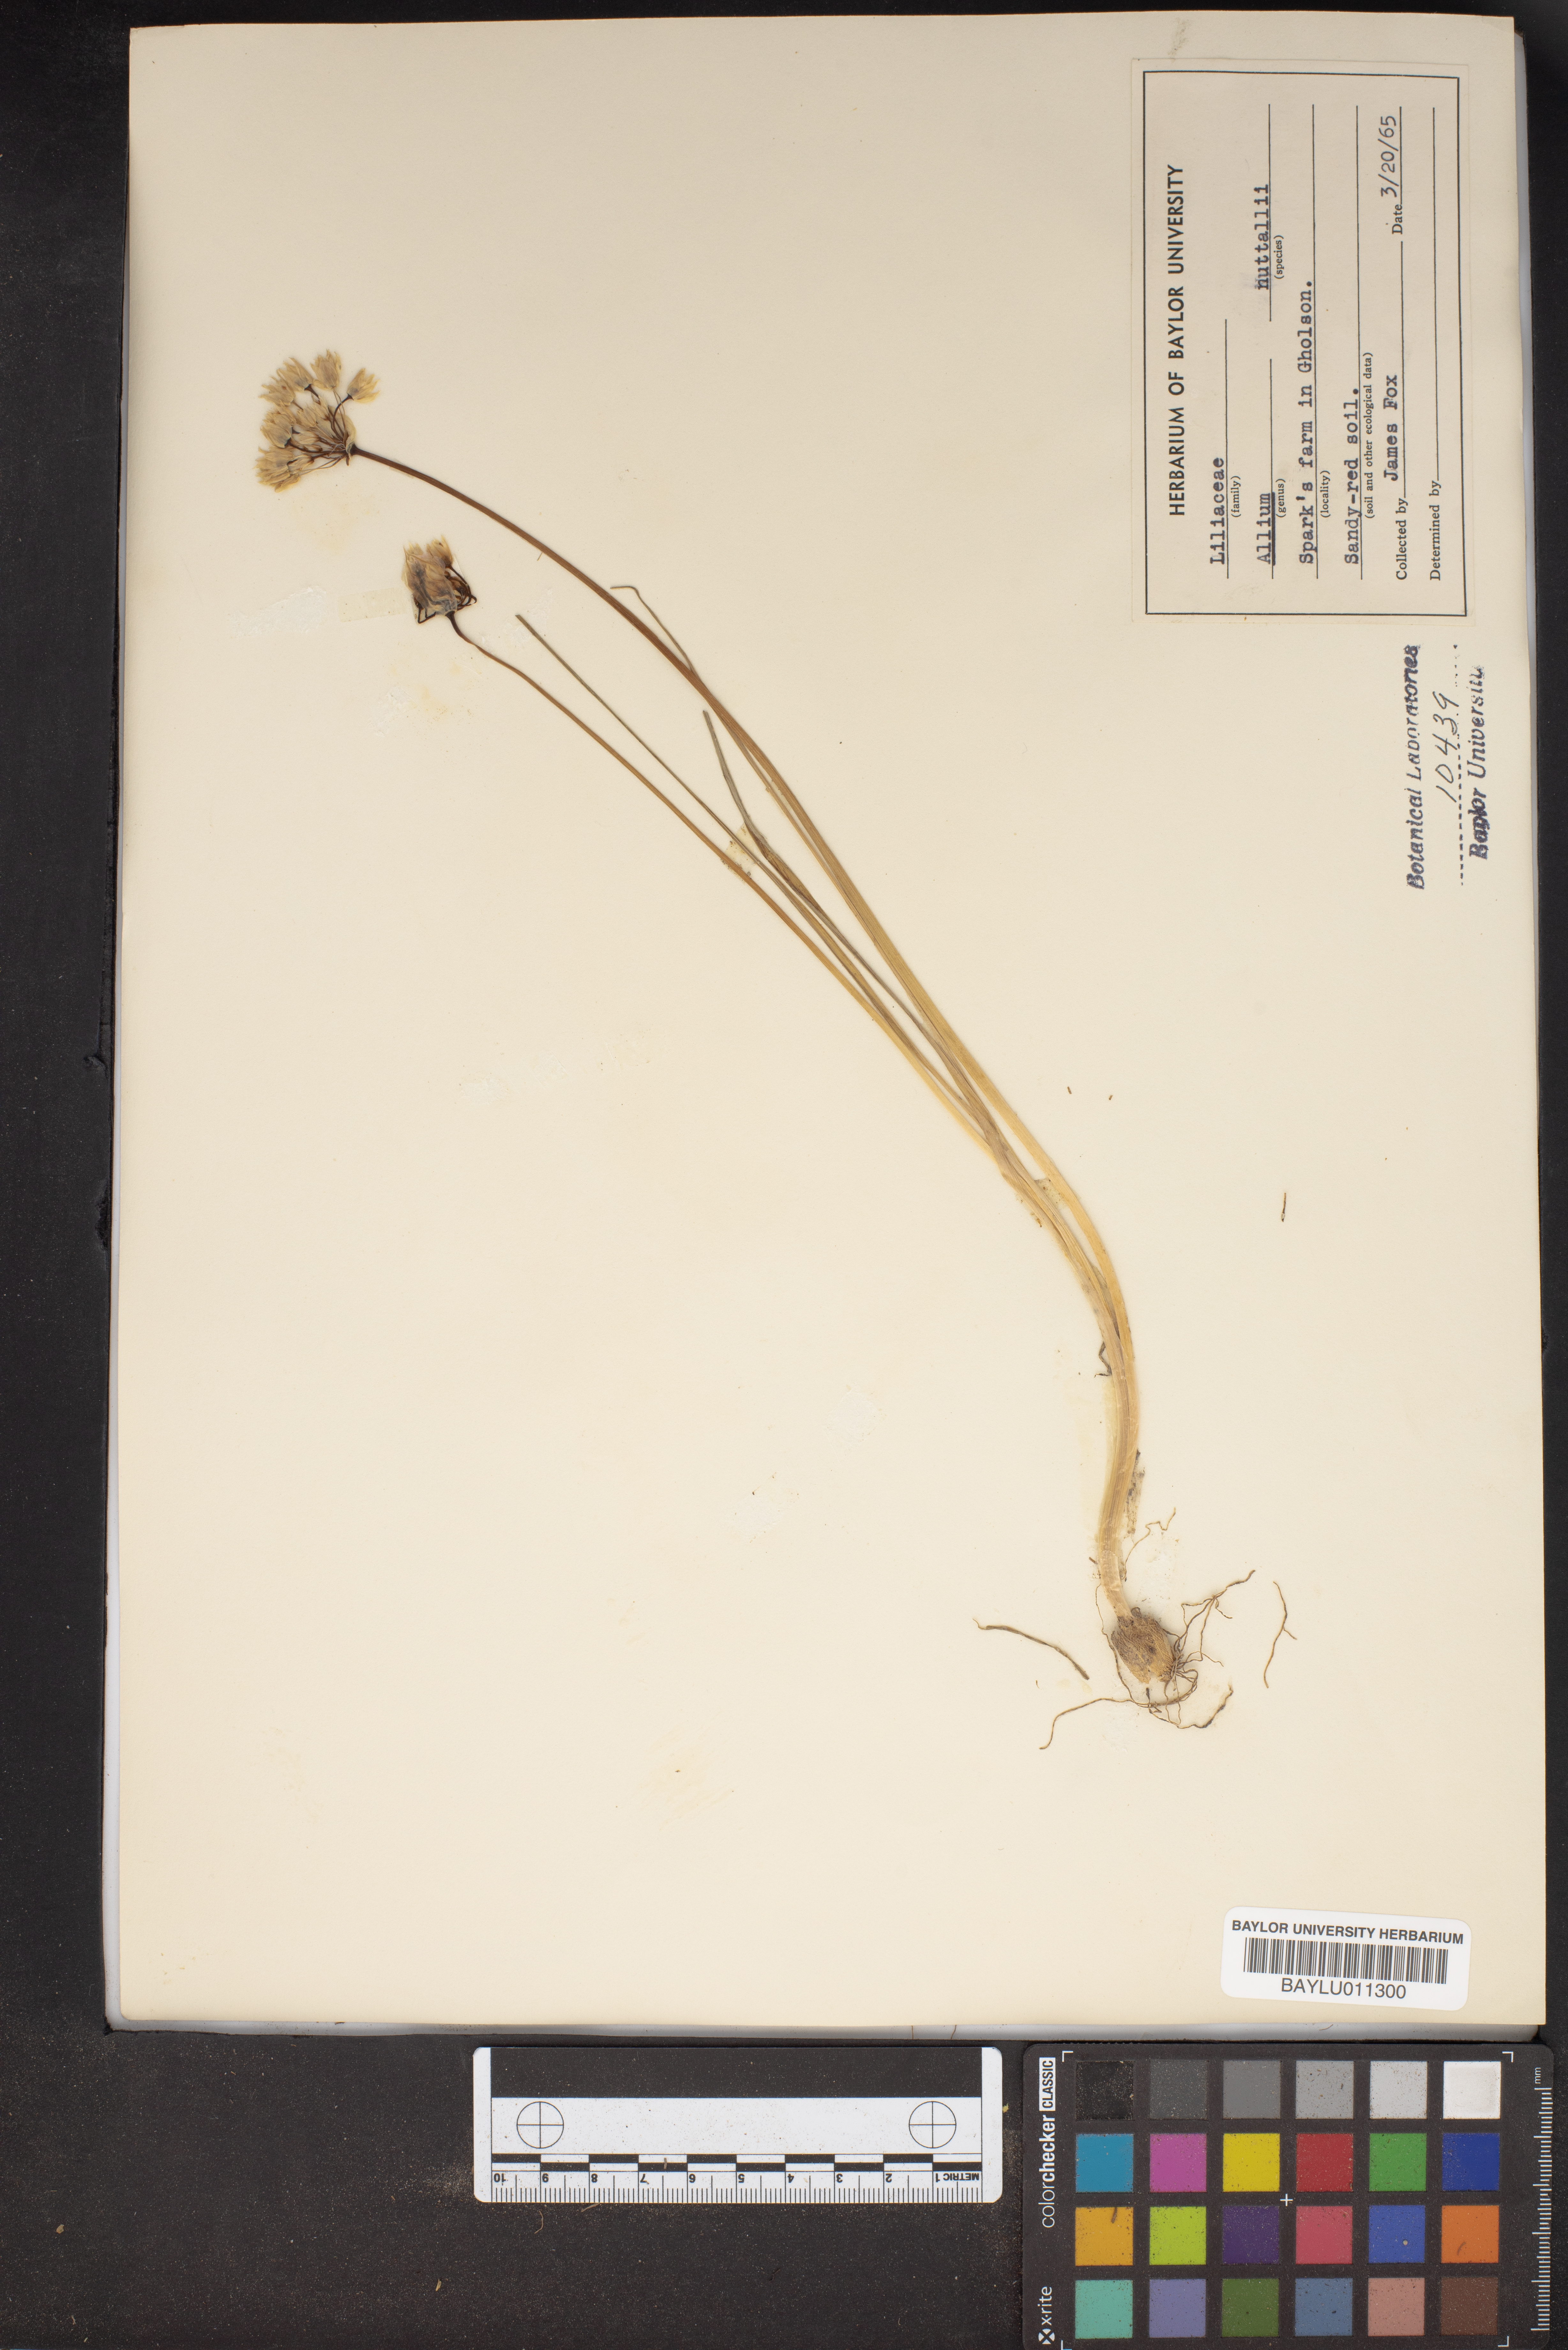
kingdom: Plantae
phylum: Tracheophyta
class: Liliopsida
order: Asparagales
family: Amaryllidaceae
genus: Allium
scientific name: Allium drummondii
